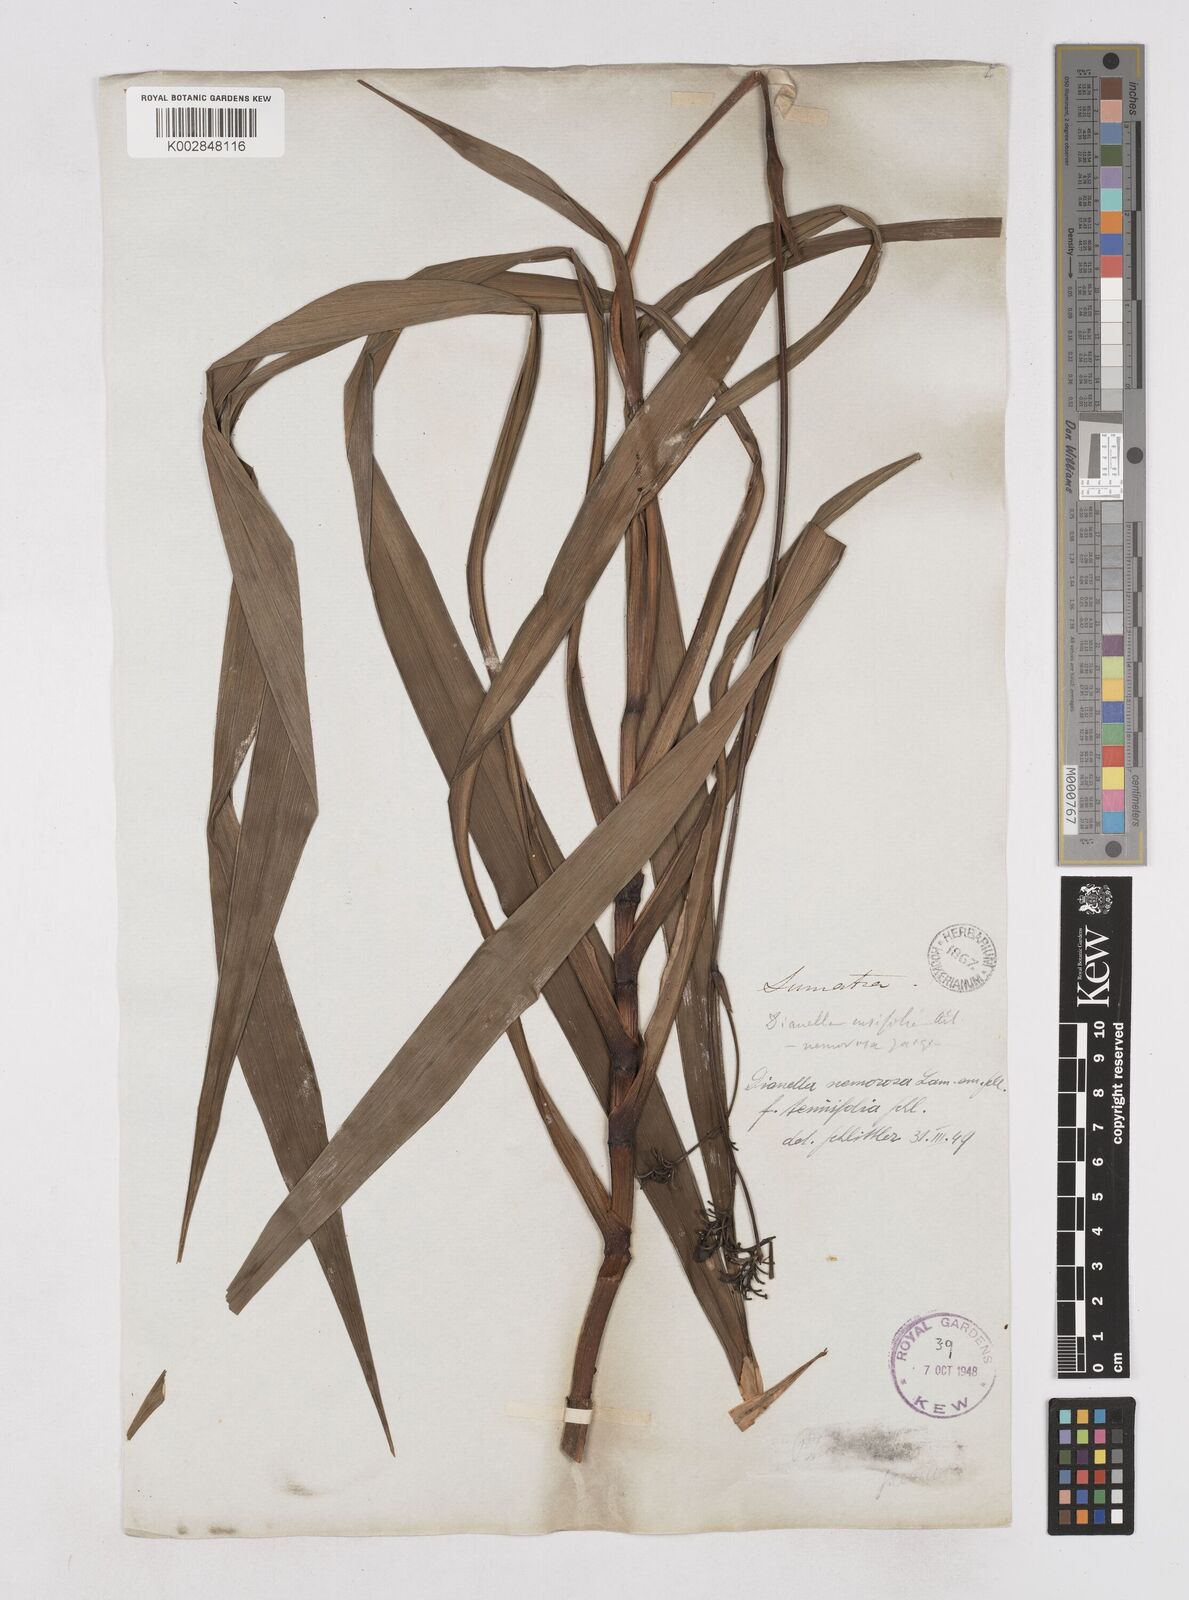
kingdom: Plantae
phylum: Tracheophyta
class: Liliopsida
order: Asparagales
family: Asphodelaceae
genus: Dianella
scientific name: Dianella ensifolia
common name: New zealand lilyplant
